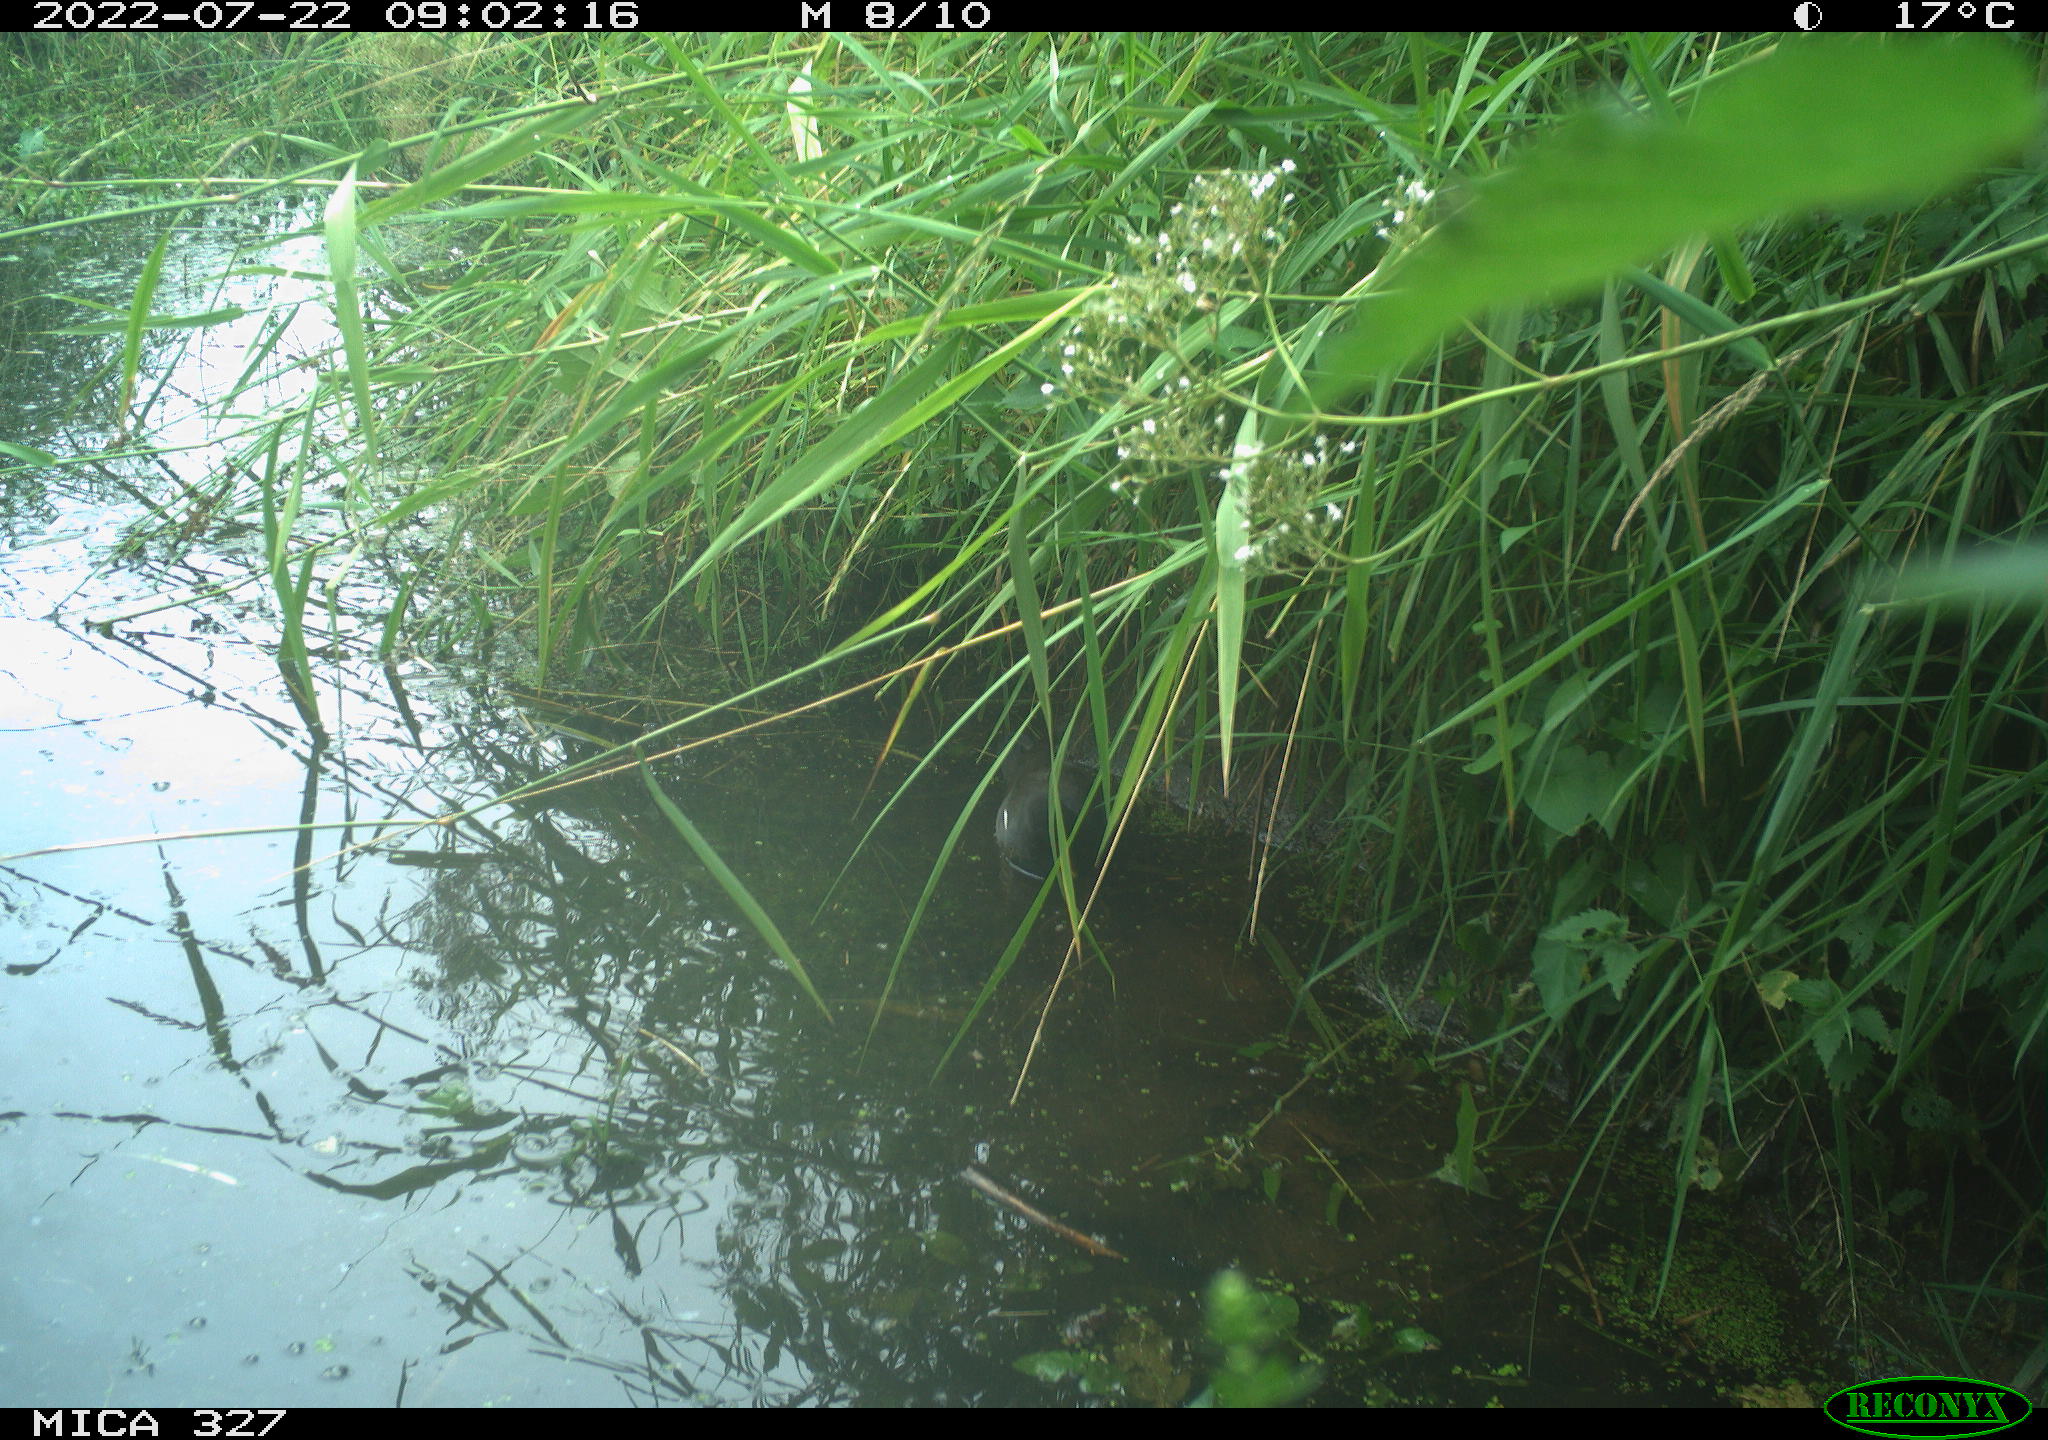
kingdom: Animalia
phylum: Chordata
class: Aves
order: Gruiformes
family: Rallidae
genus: Gallinula
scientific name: Gallinula chloropus
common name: Common moorhen
